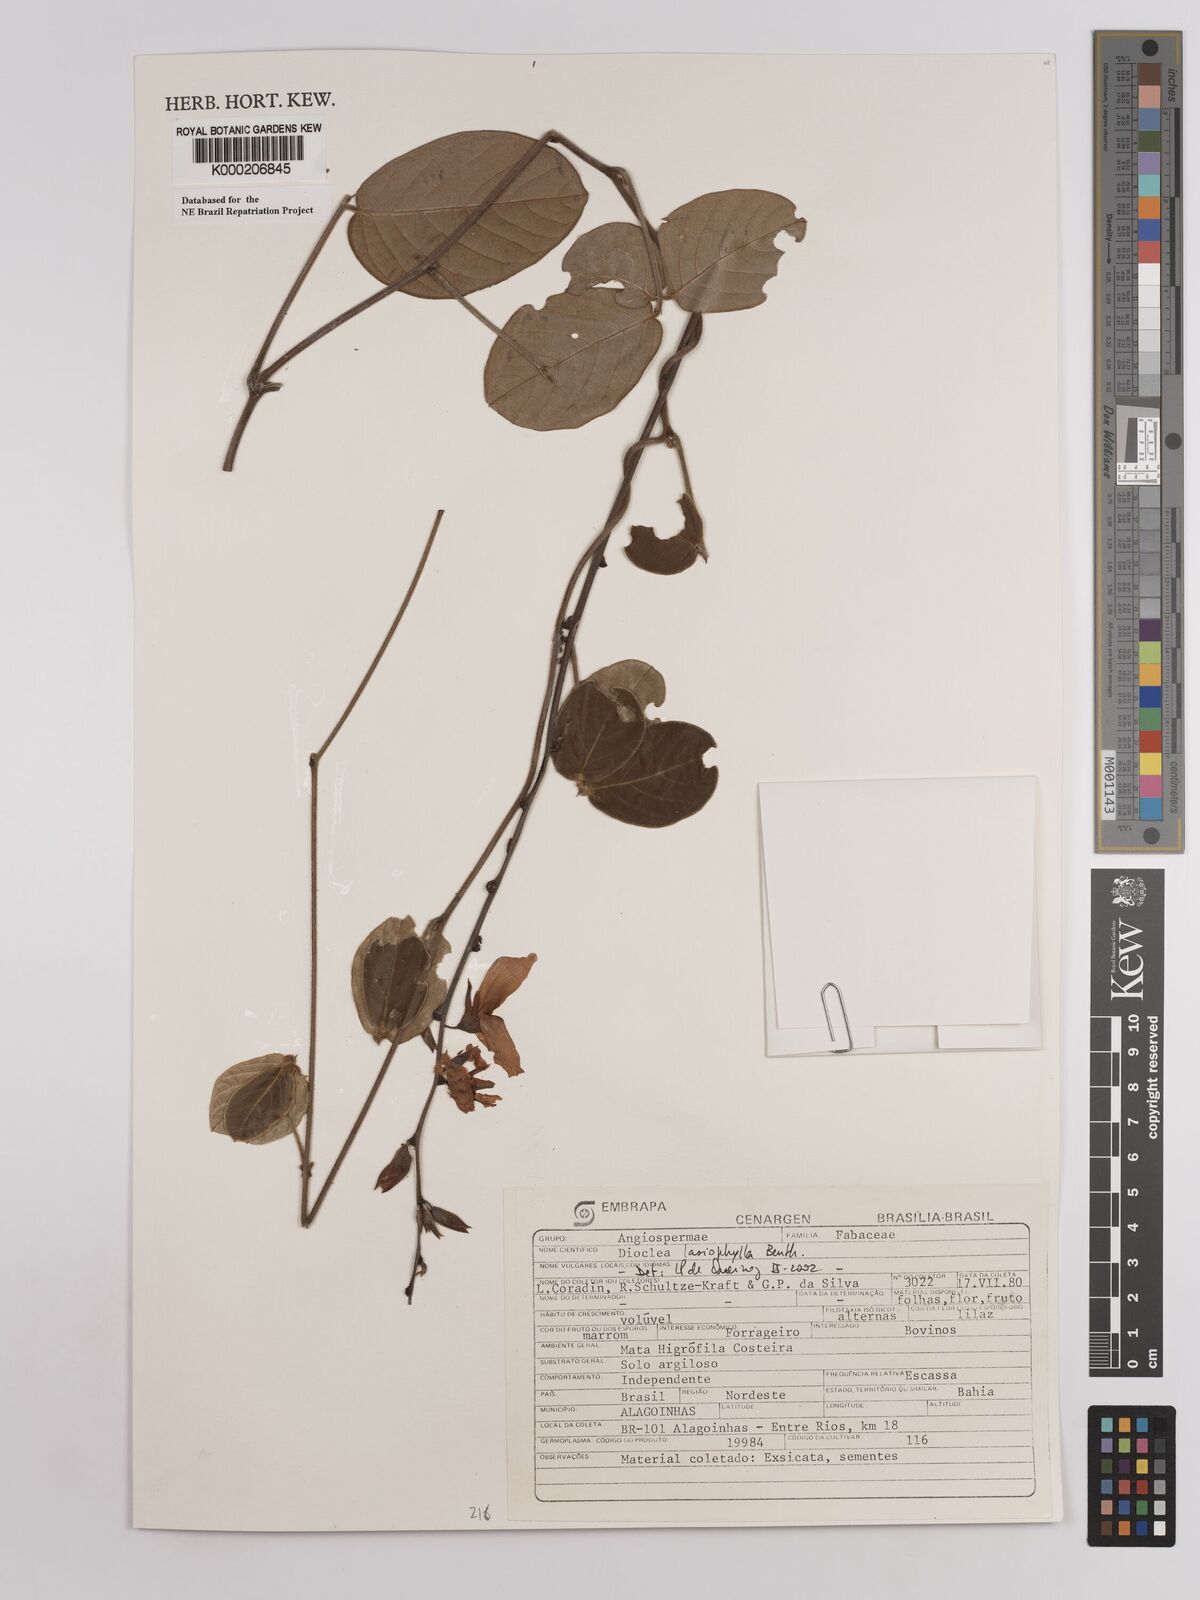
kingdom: Plantae
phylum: Tracheophyta
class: Magnoliopsida
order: Fabales
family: Fabaceae
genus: Dioclea
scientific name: Dioclea lasiophylla
